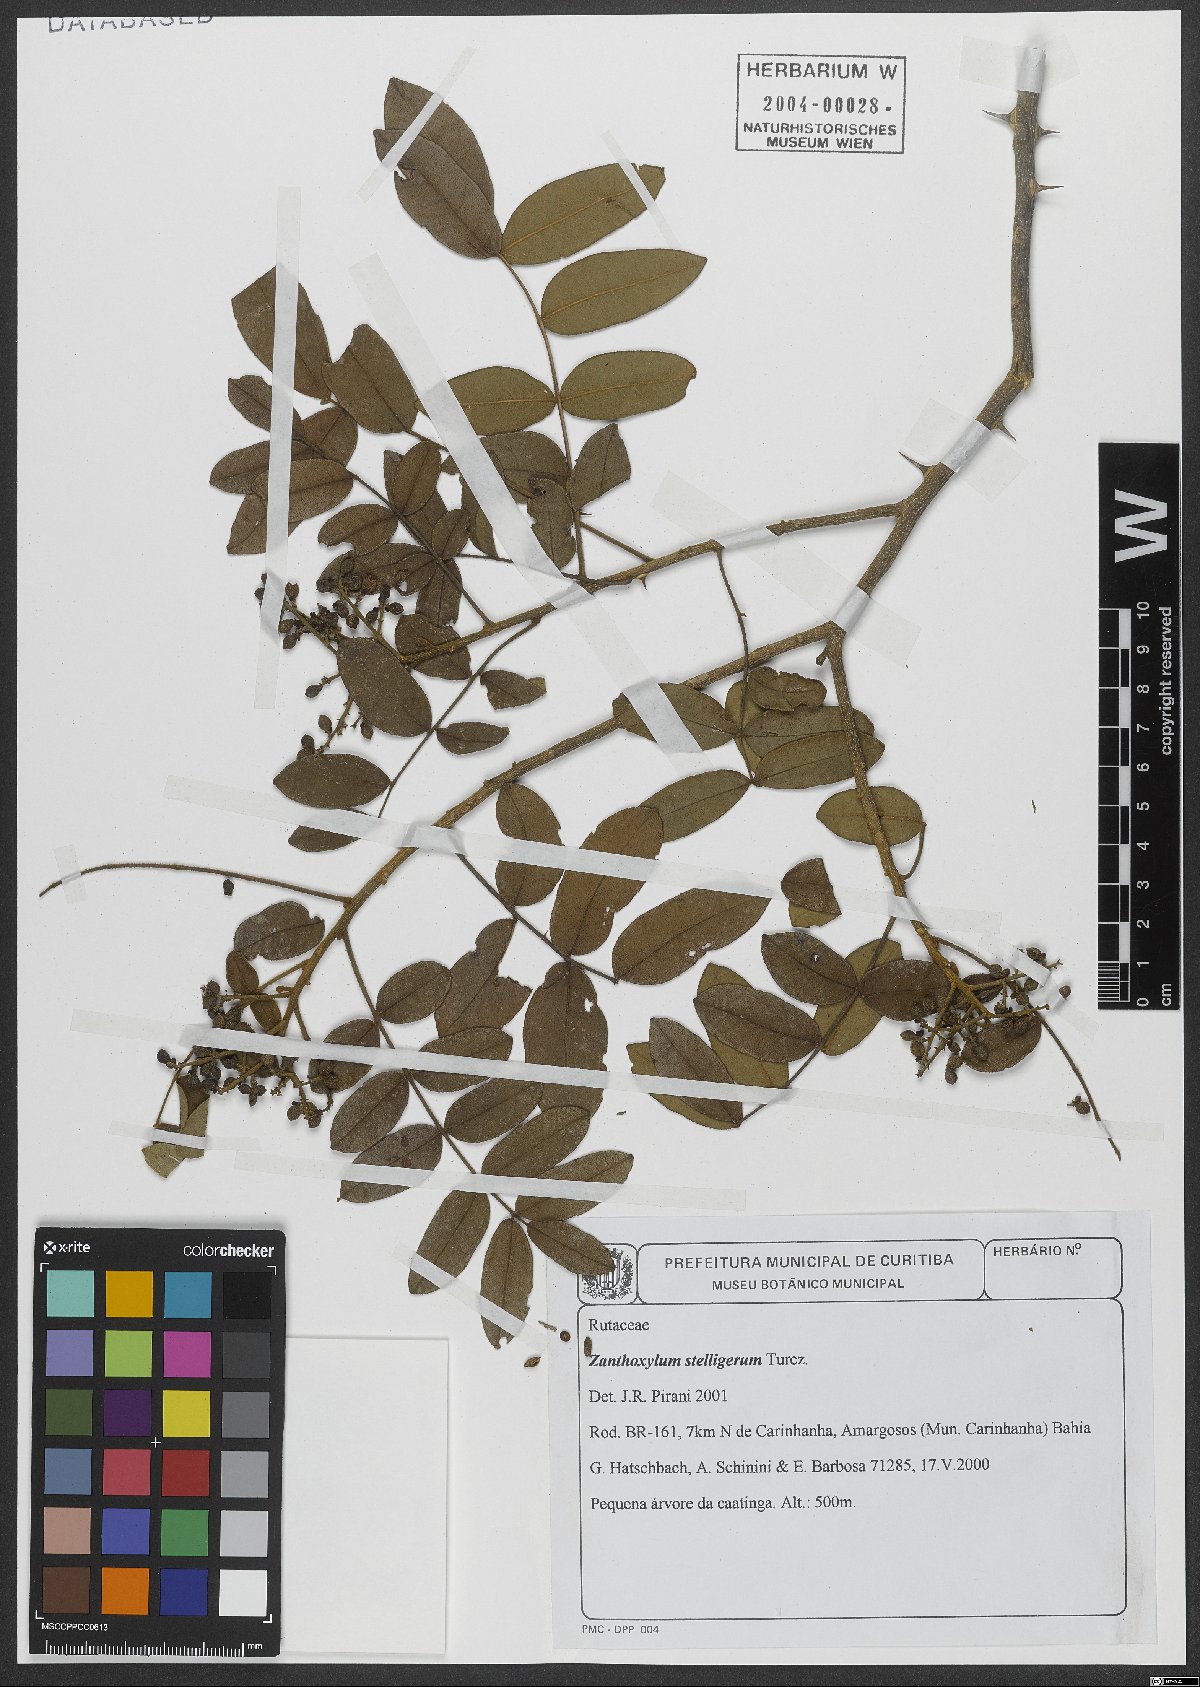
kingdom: Plantae
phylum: Tracheophyta
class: Magnoliopsida
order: Sapindales
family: Rutaceae
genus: Zanthoxylum
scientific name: Zanthoxylum stelligerum
